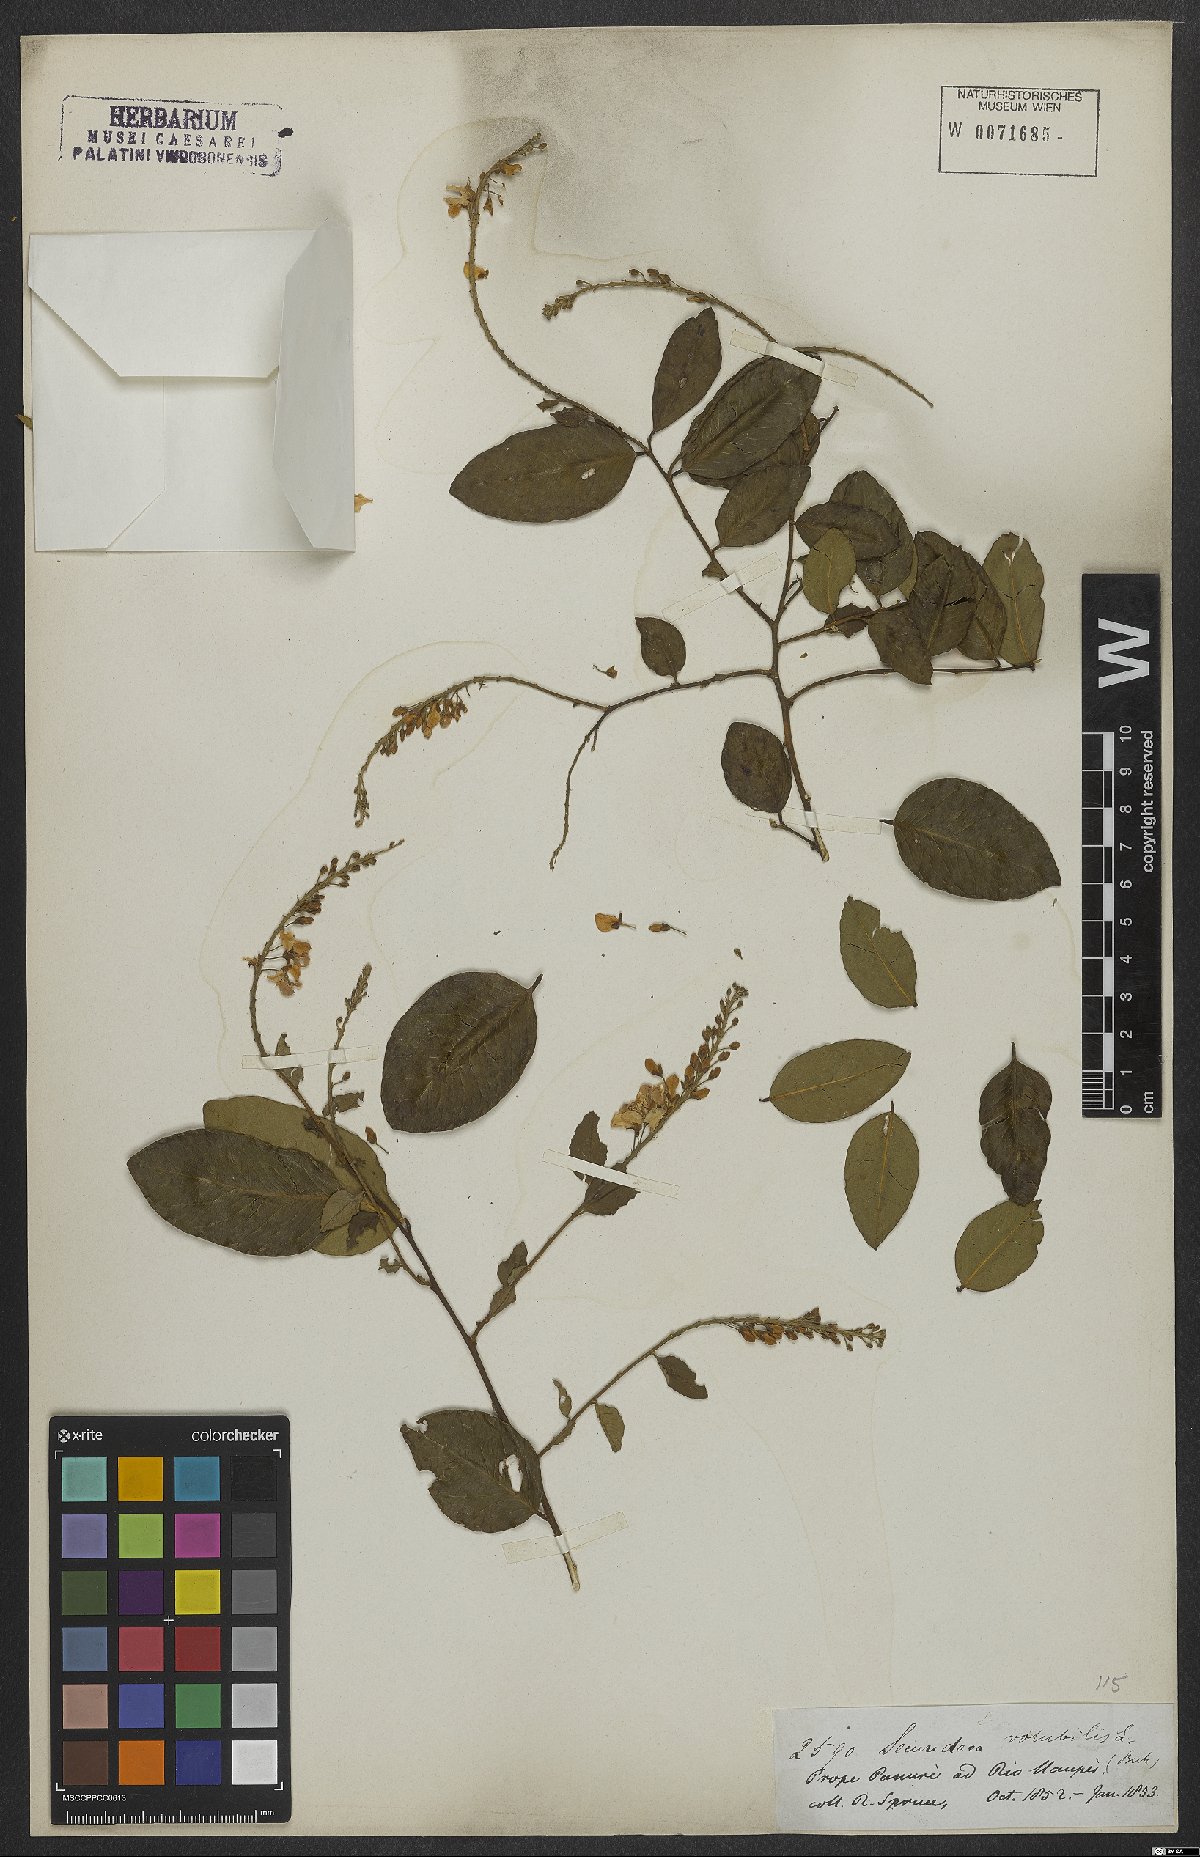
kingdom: Plantae
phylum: Tracheophyta
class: Magnoliopsida
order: Fabales
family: Polygalaceae
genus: Securidaca
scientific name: Securidaca
